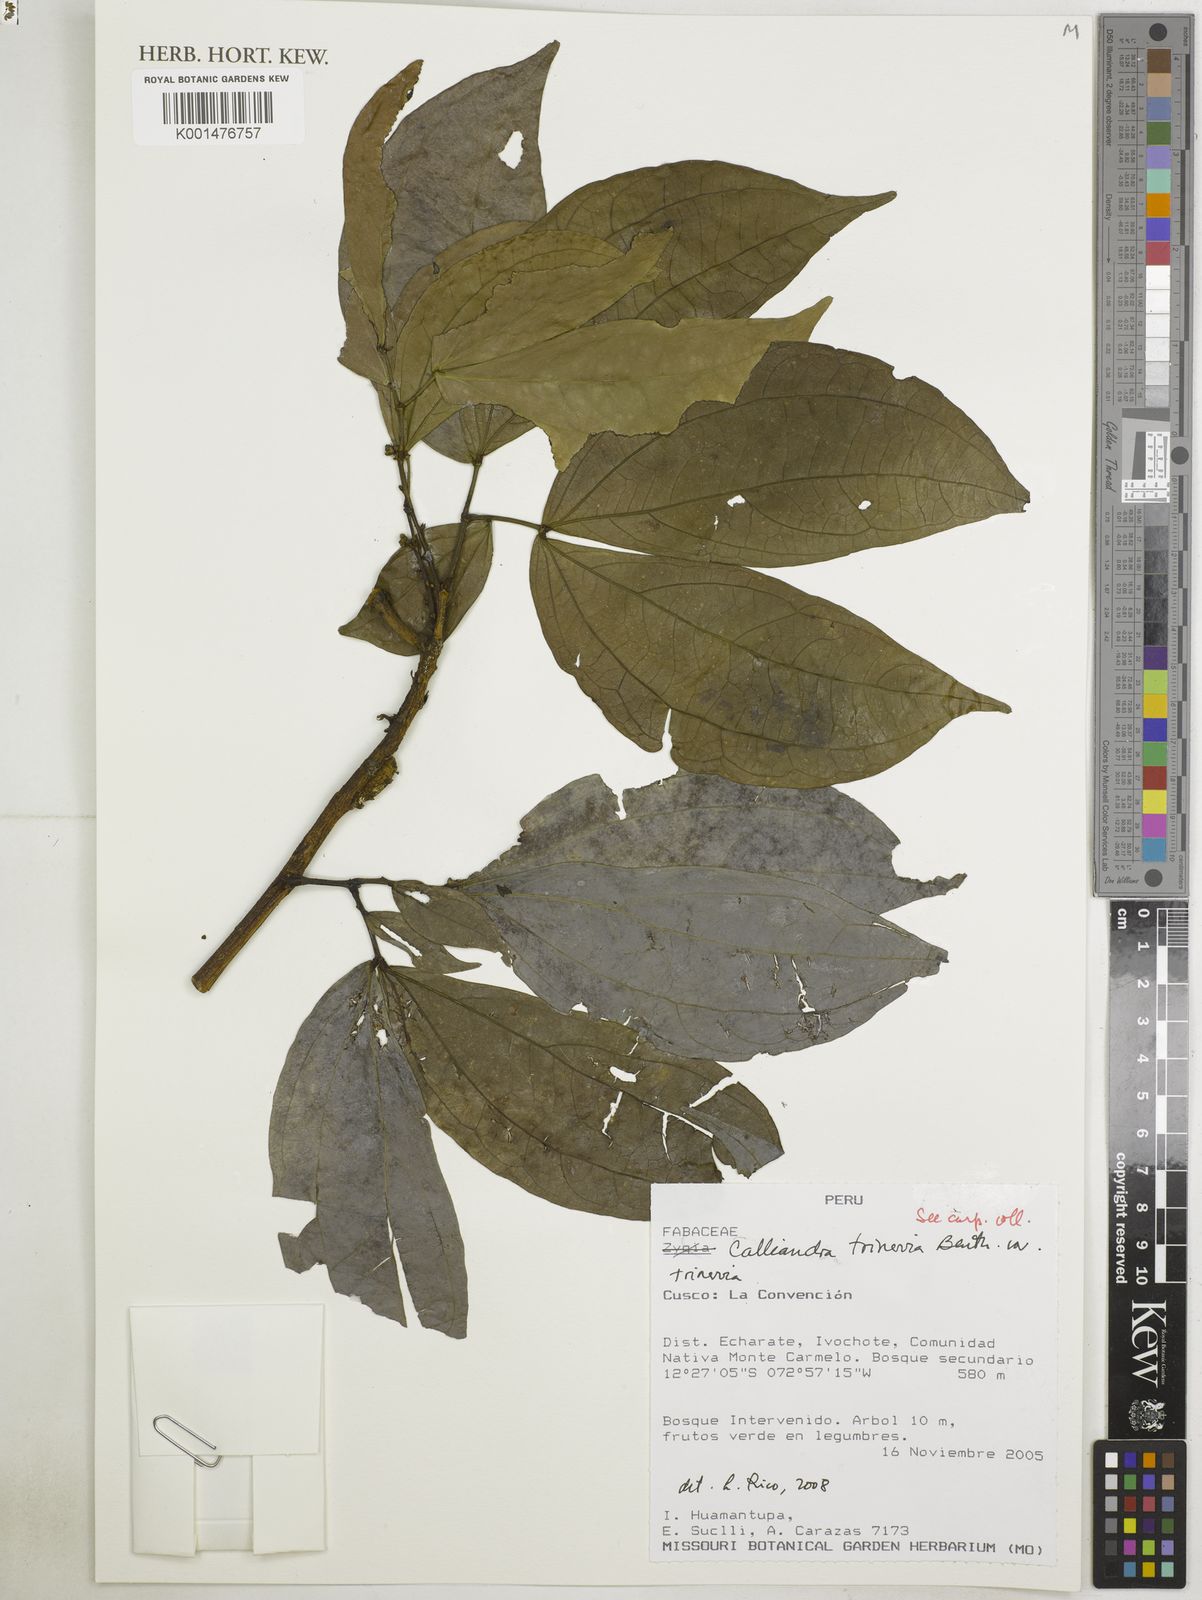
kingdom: Plantae
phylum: Tracheophyta
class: Magnoliopsida
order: Fabales
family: Fabaceae
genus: Calliandra
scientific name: Calliandra trinervia
